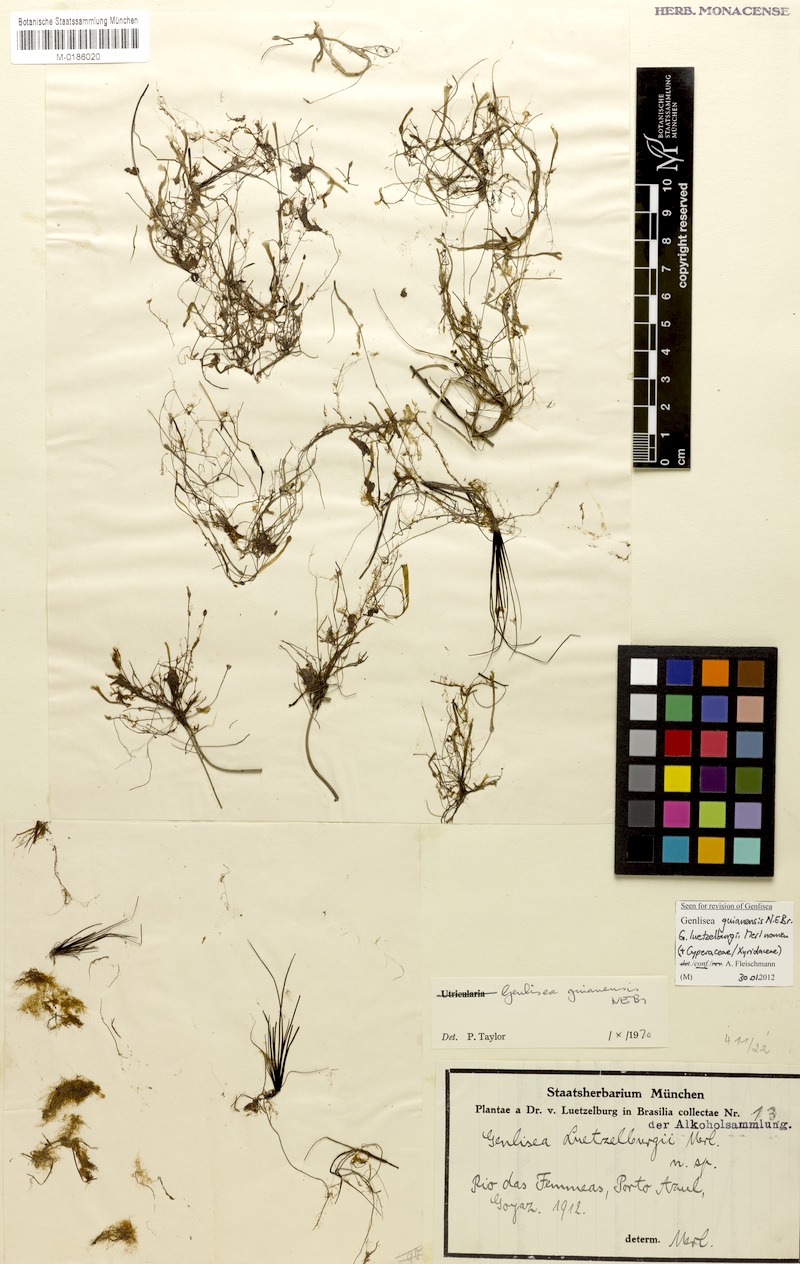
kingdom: Plantae
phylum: Tracheophyta
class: Magnoliopsida
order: Lamiales
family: Lentibulariaceae
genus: Genlisea
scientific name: Genlisea guianensis
